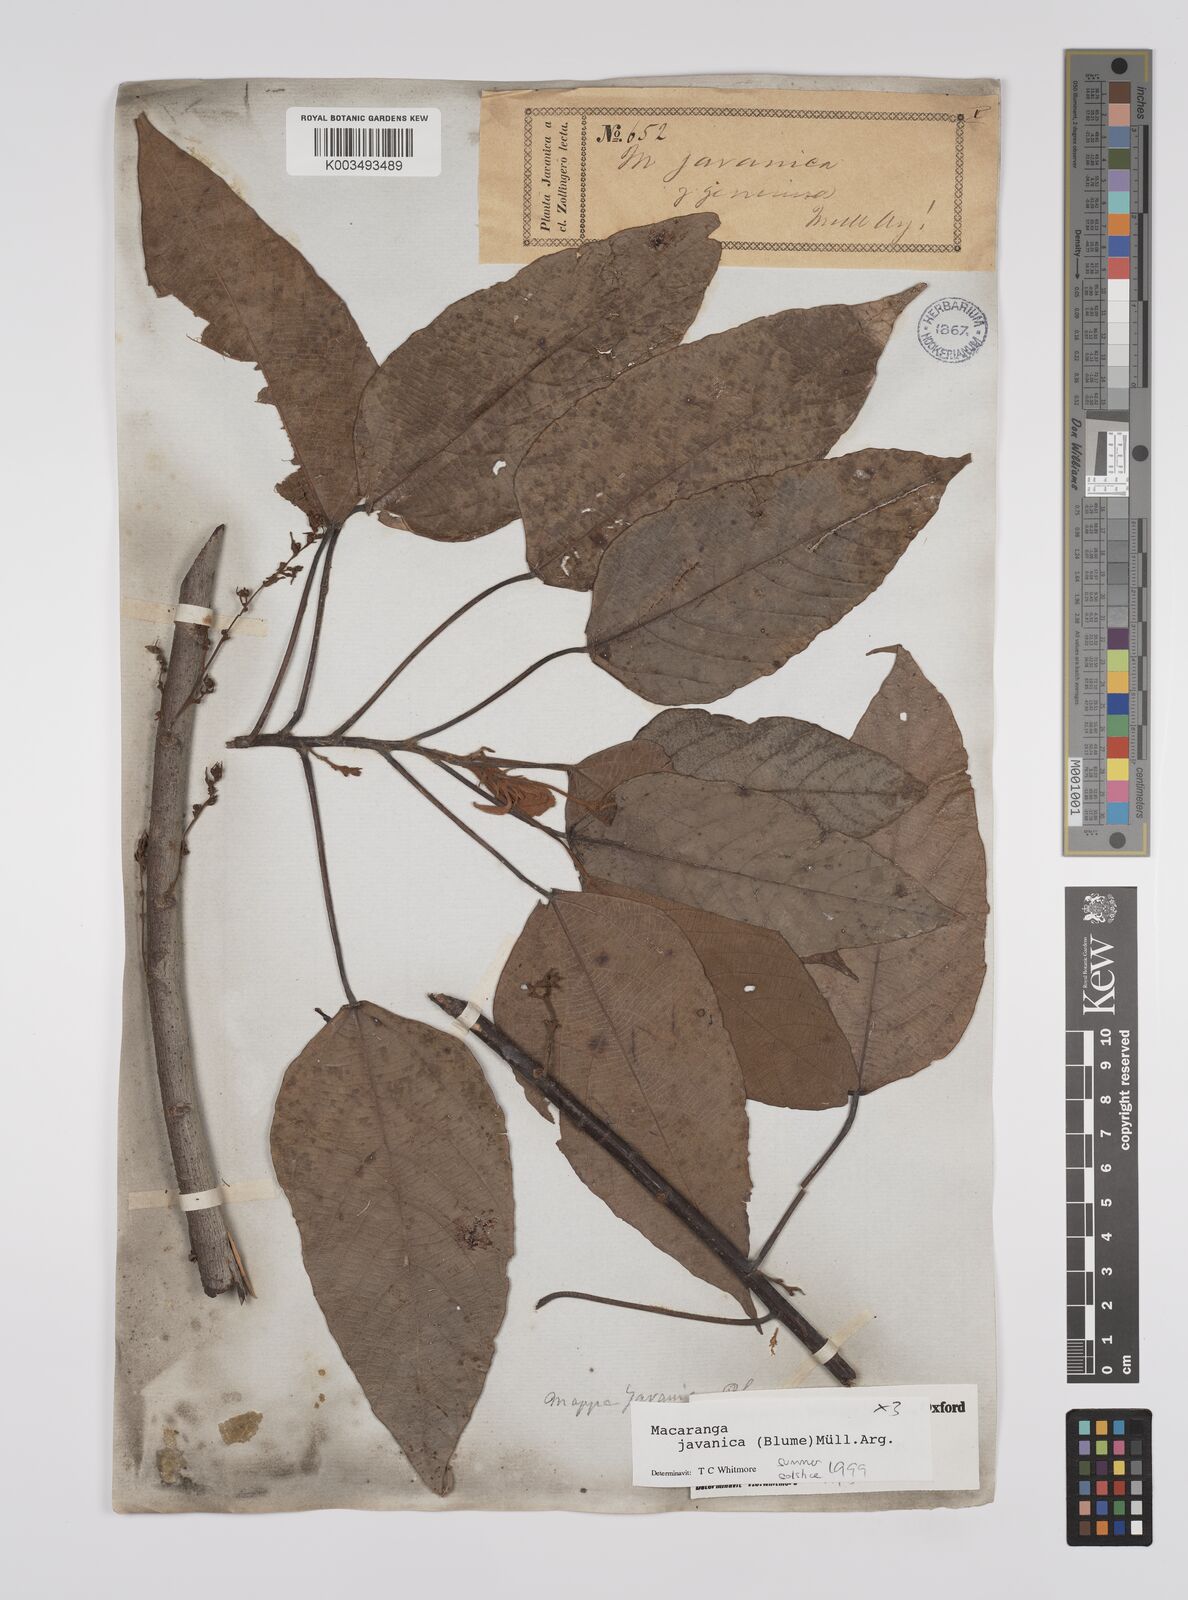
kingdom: Plantae
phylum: Tracheophyta
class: Magnoliopsida
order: Malpighiales
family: Euphorbiaceae
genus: Macaranga
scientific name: Macaranga javanica
